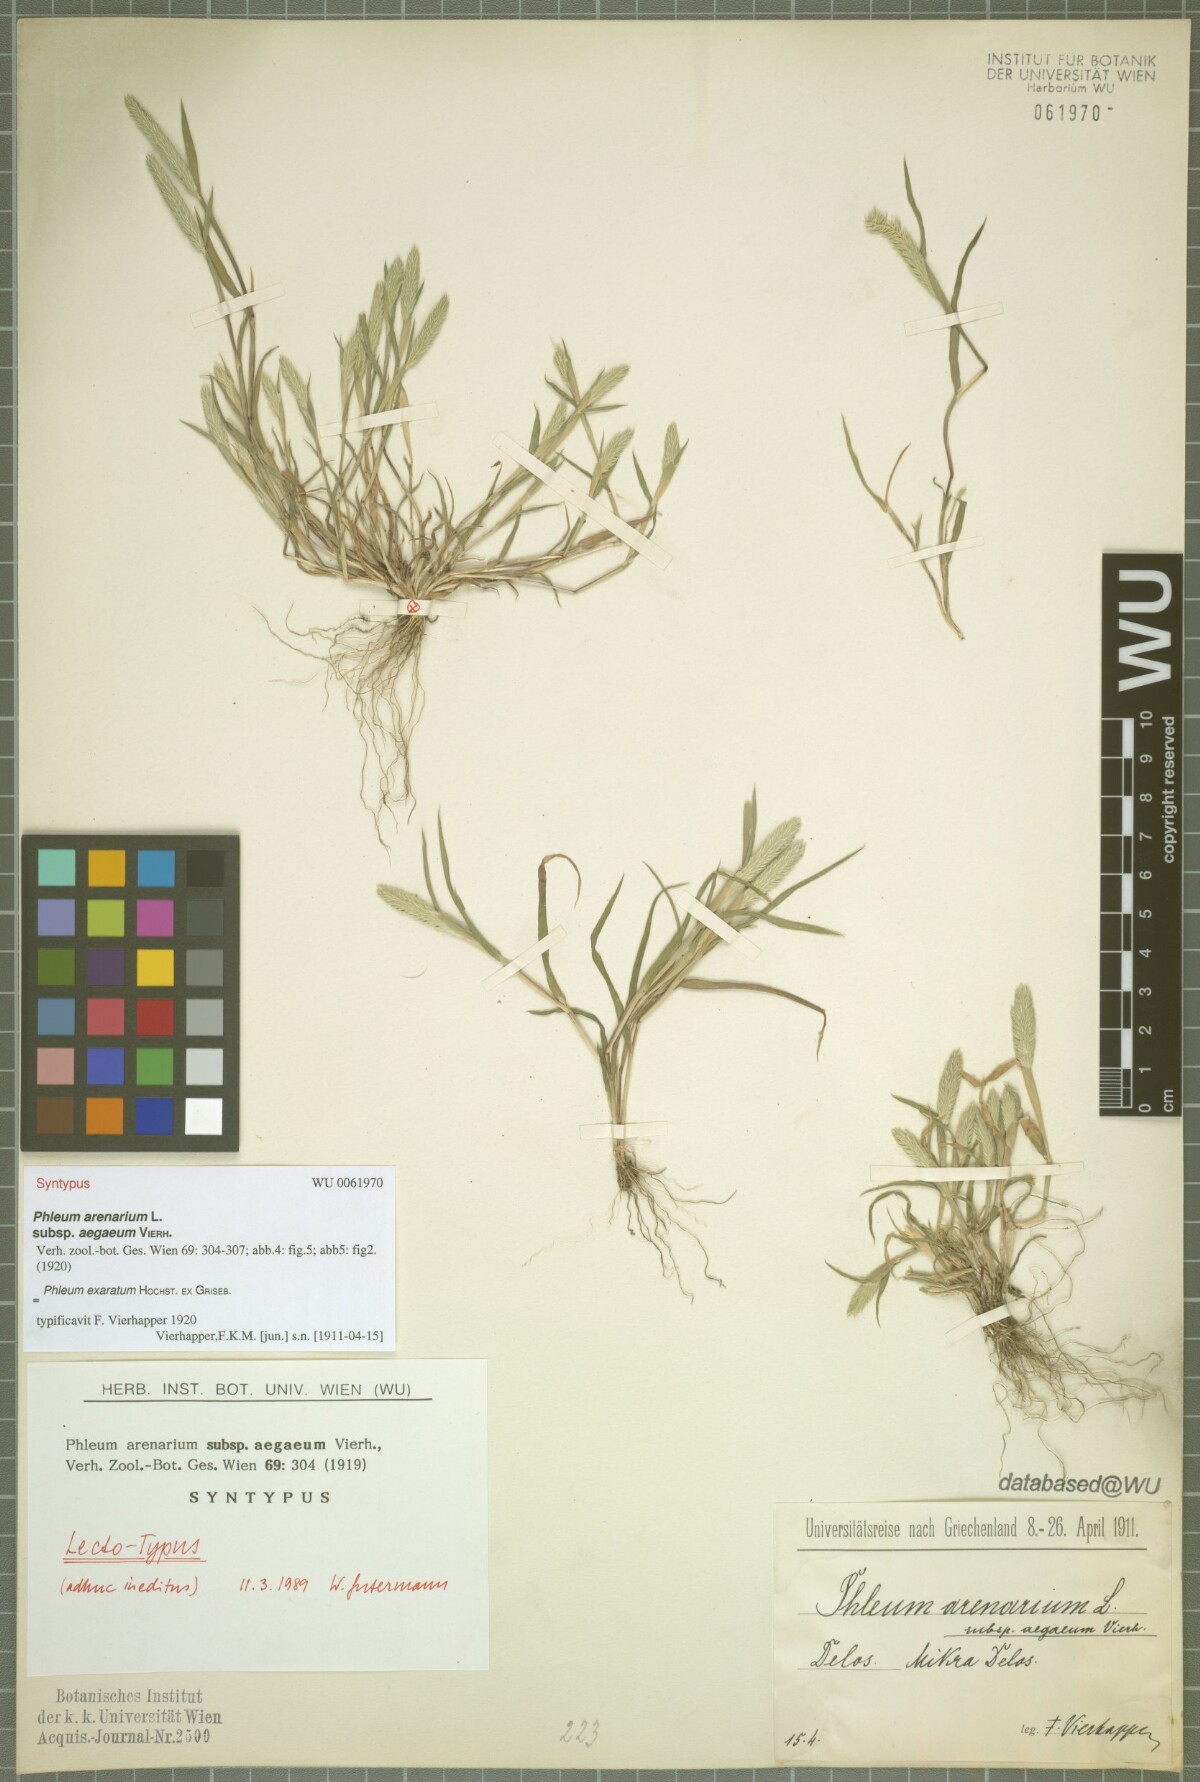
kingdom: Plantae
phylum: Tracheophyta
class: Liliopsida
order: Poales
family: Poaceae
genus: Phleum
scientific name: Phleum exaratum
